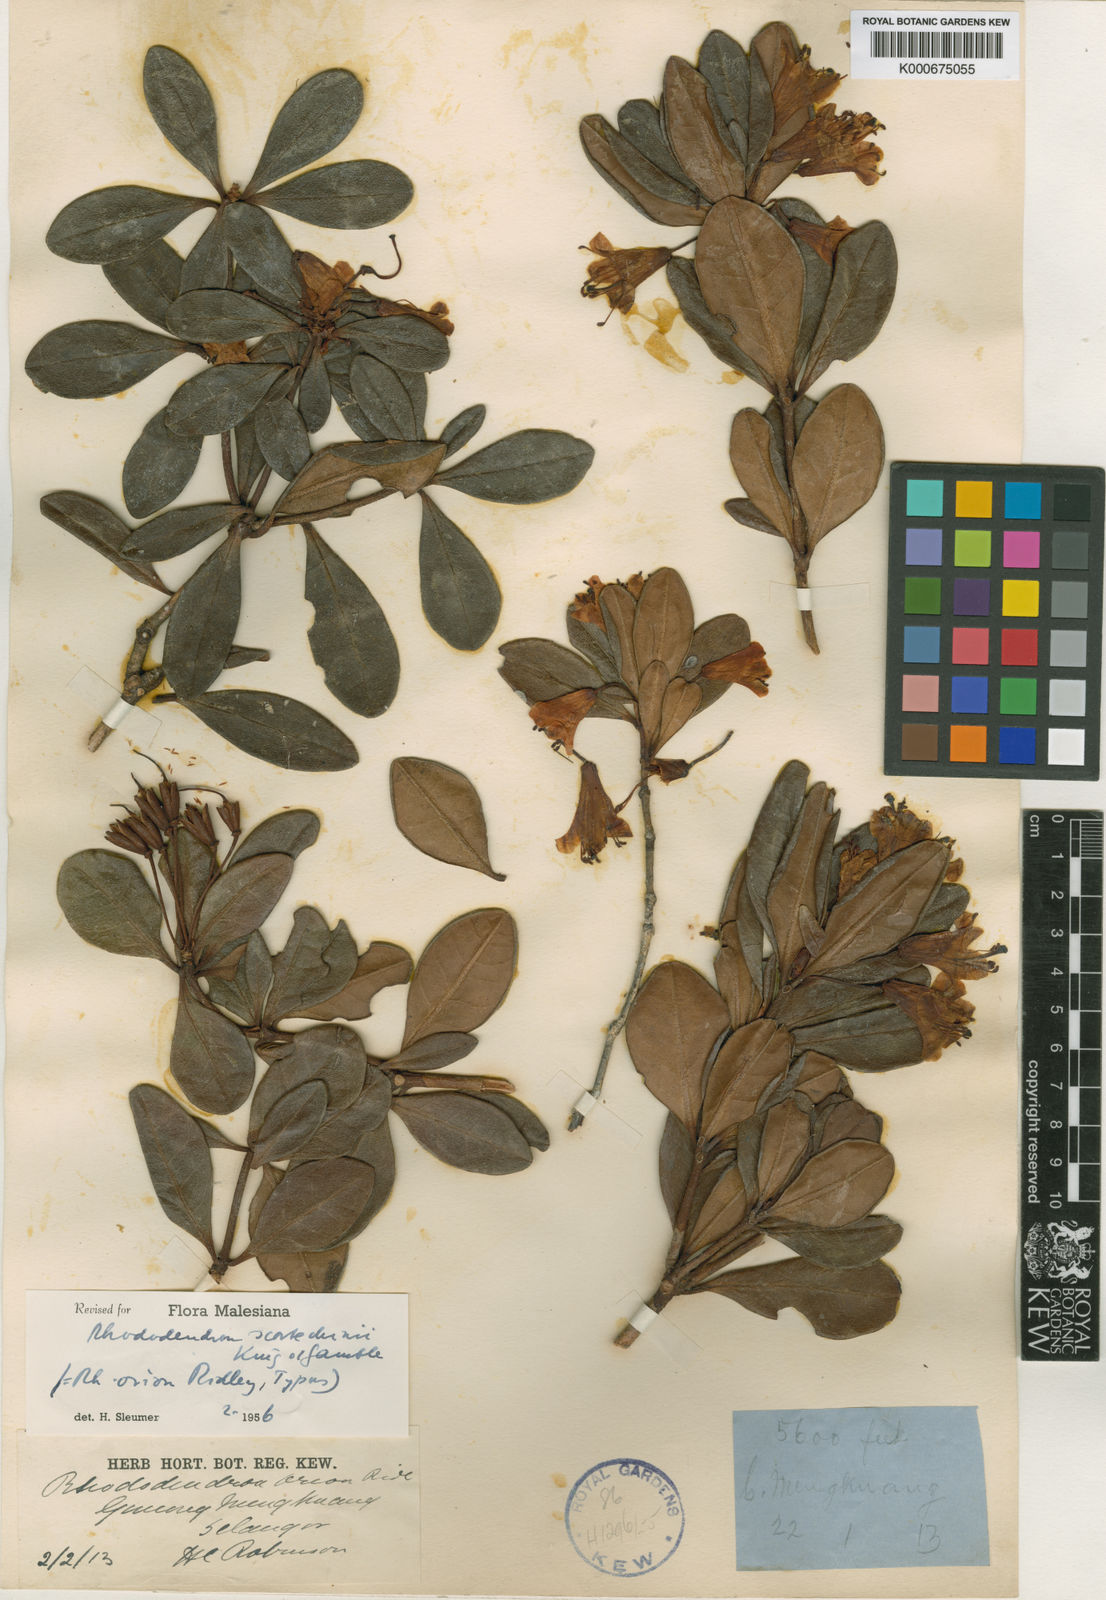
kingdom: Plantae
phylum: Tracheophyta
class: Magnoliopsida
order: Ericales
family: Ericaceae
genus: Rhododendron
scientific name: Rhododendron scortechinii
